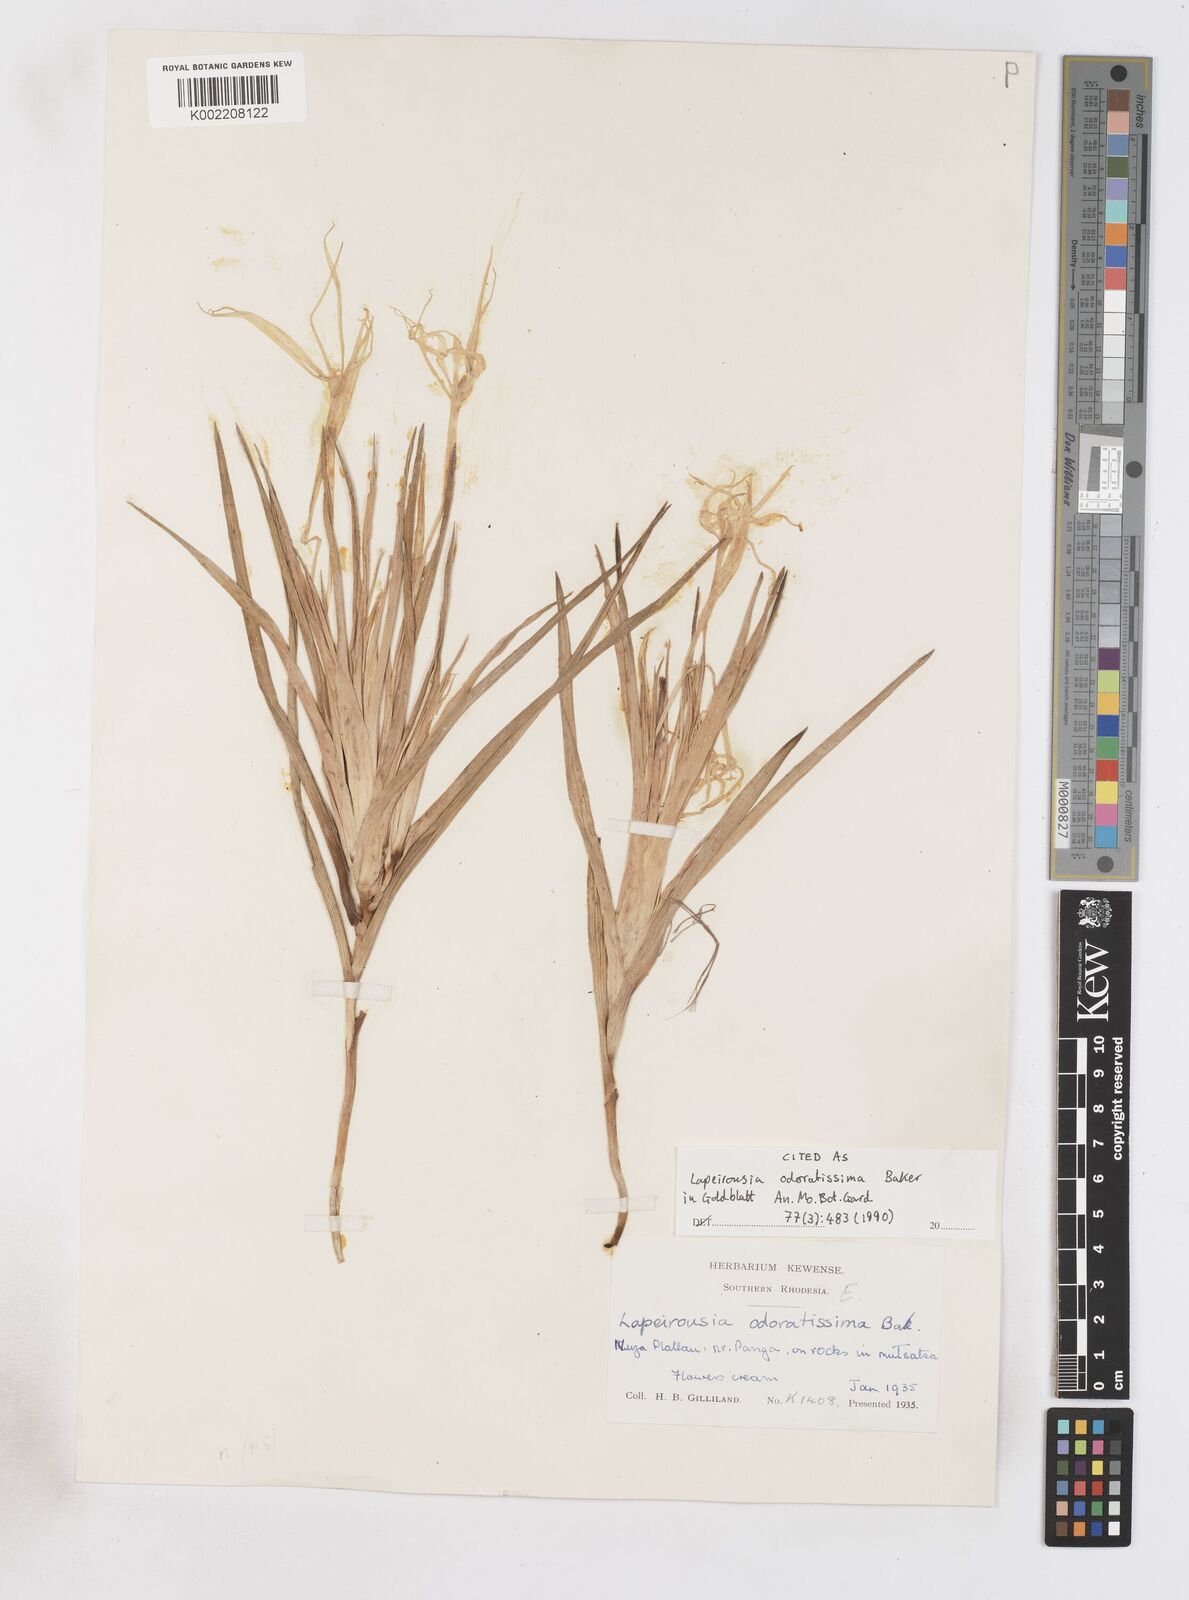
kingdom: Plantae
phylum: Tracheophyta
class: Liliopsida
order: Asparagales
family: Iridaceae
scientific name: Iridaceae
